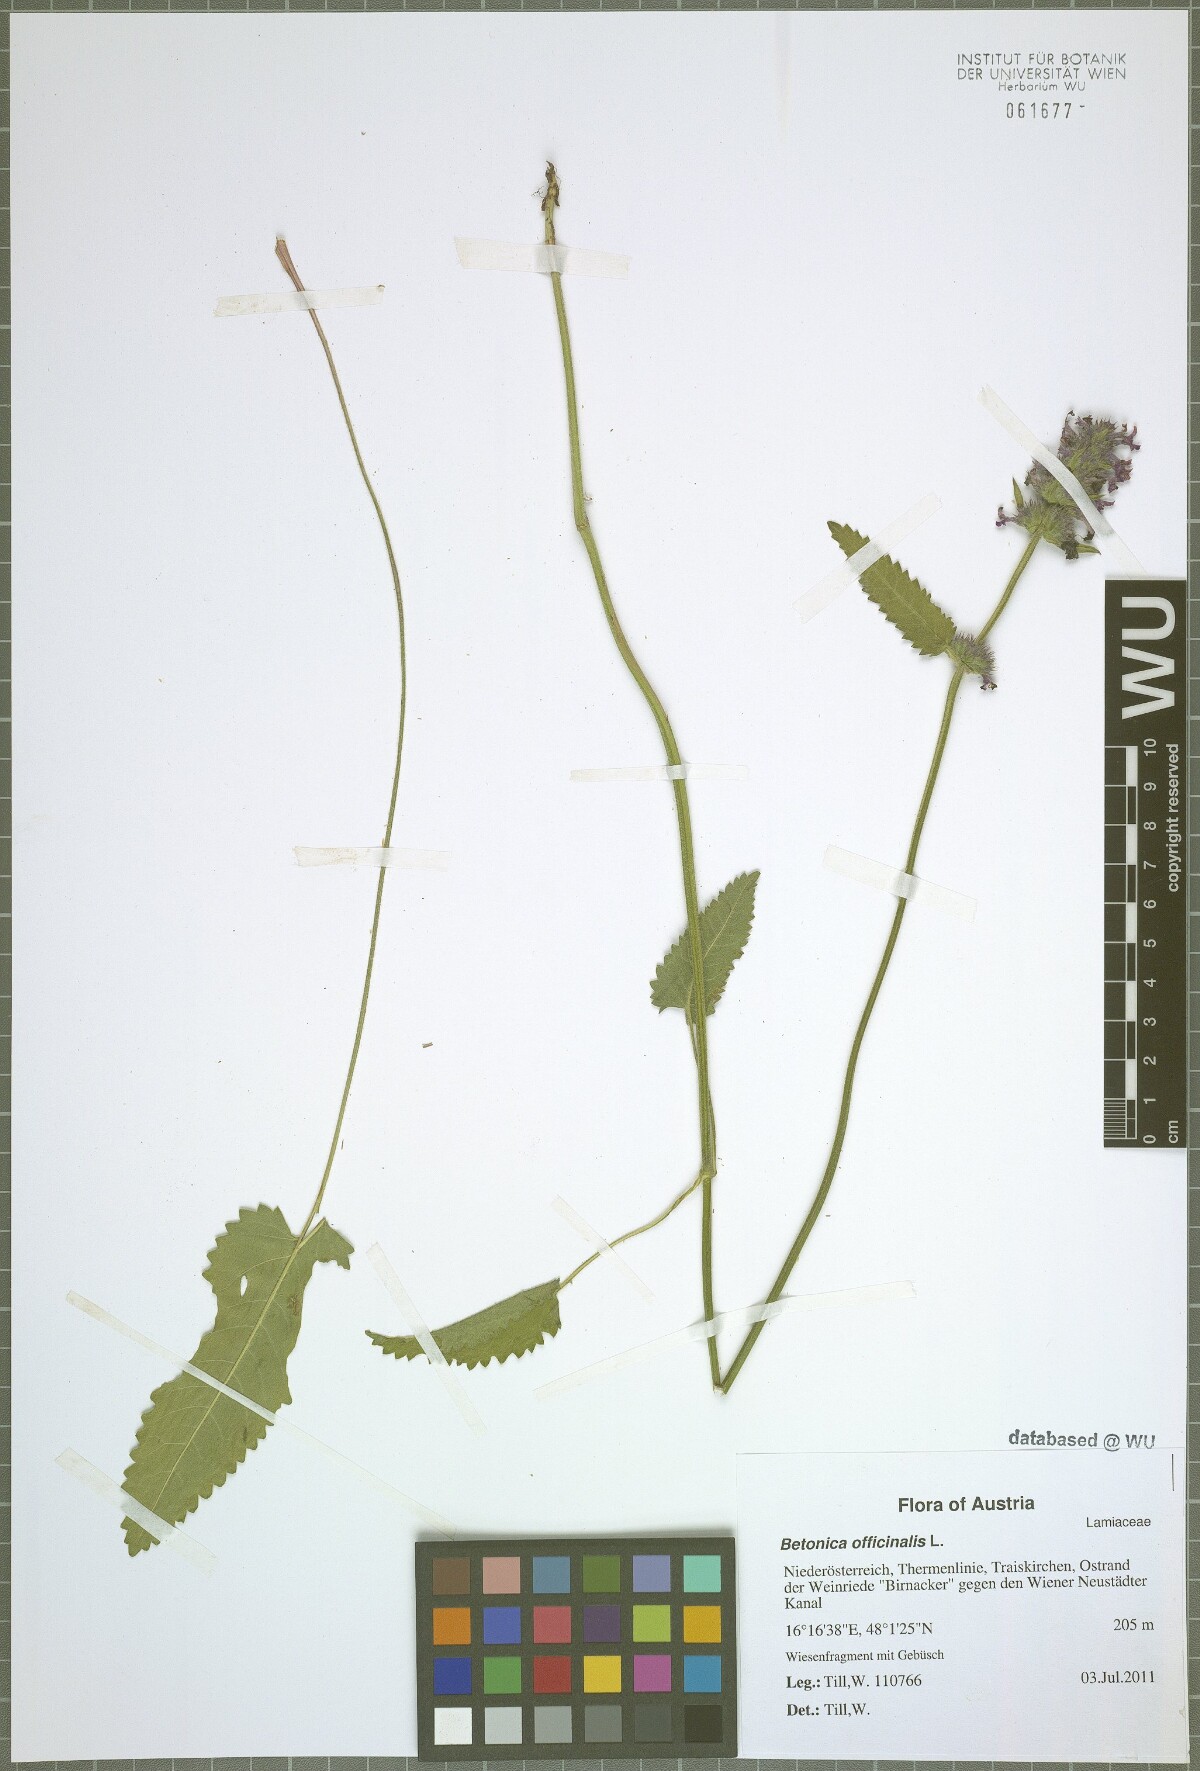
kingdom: Plantae
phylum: Tracheophyta
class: Magnoliopsida
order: Lamiales
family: Lamiaceae
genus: Betonica
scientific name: Betonica officinalis
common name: Bishop's-wort
